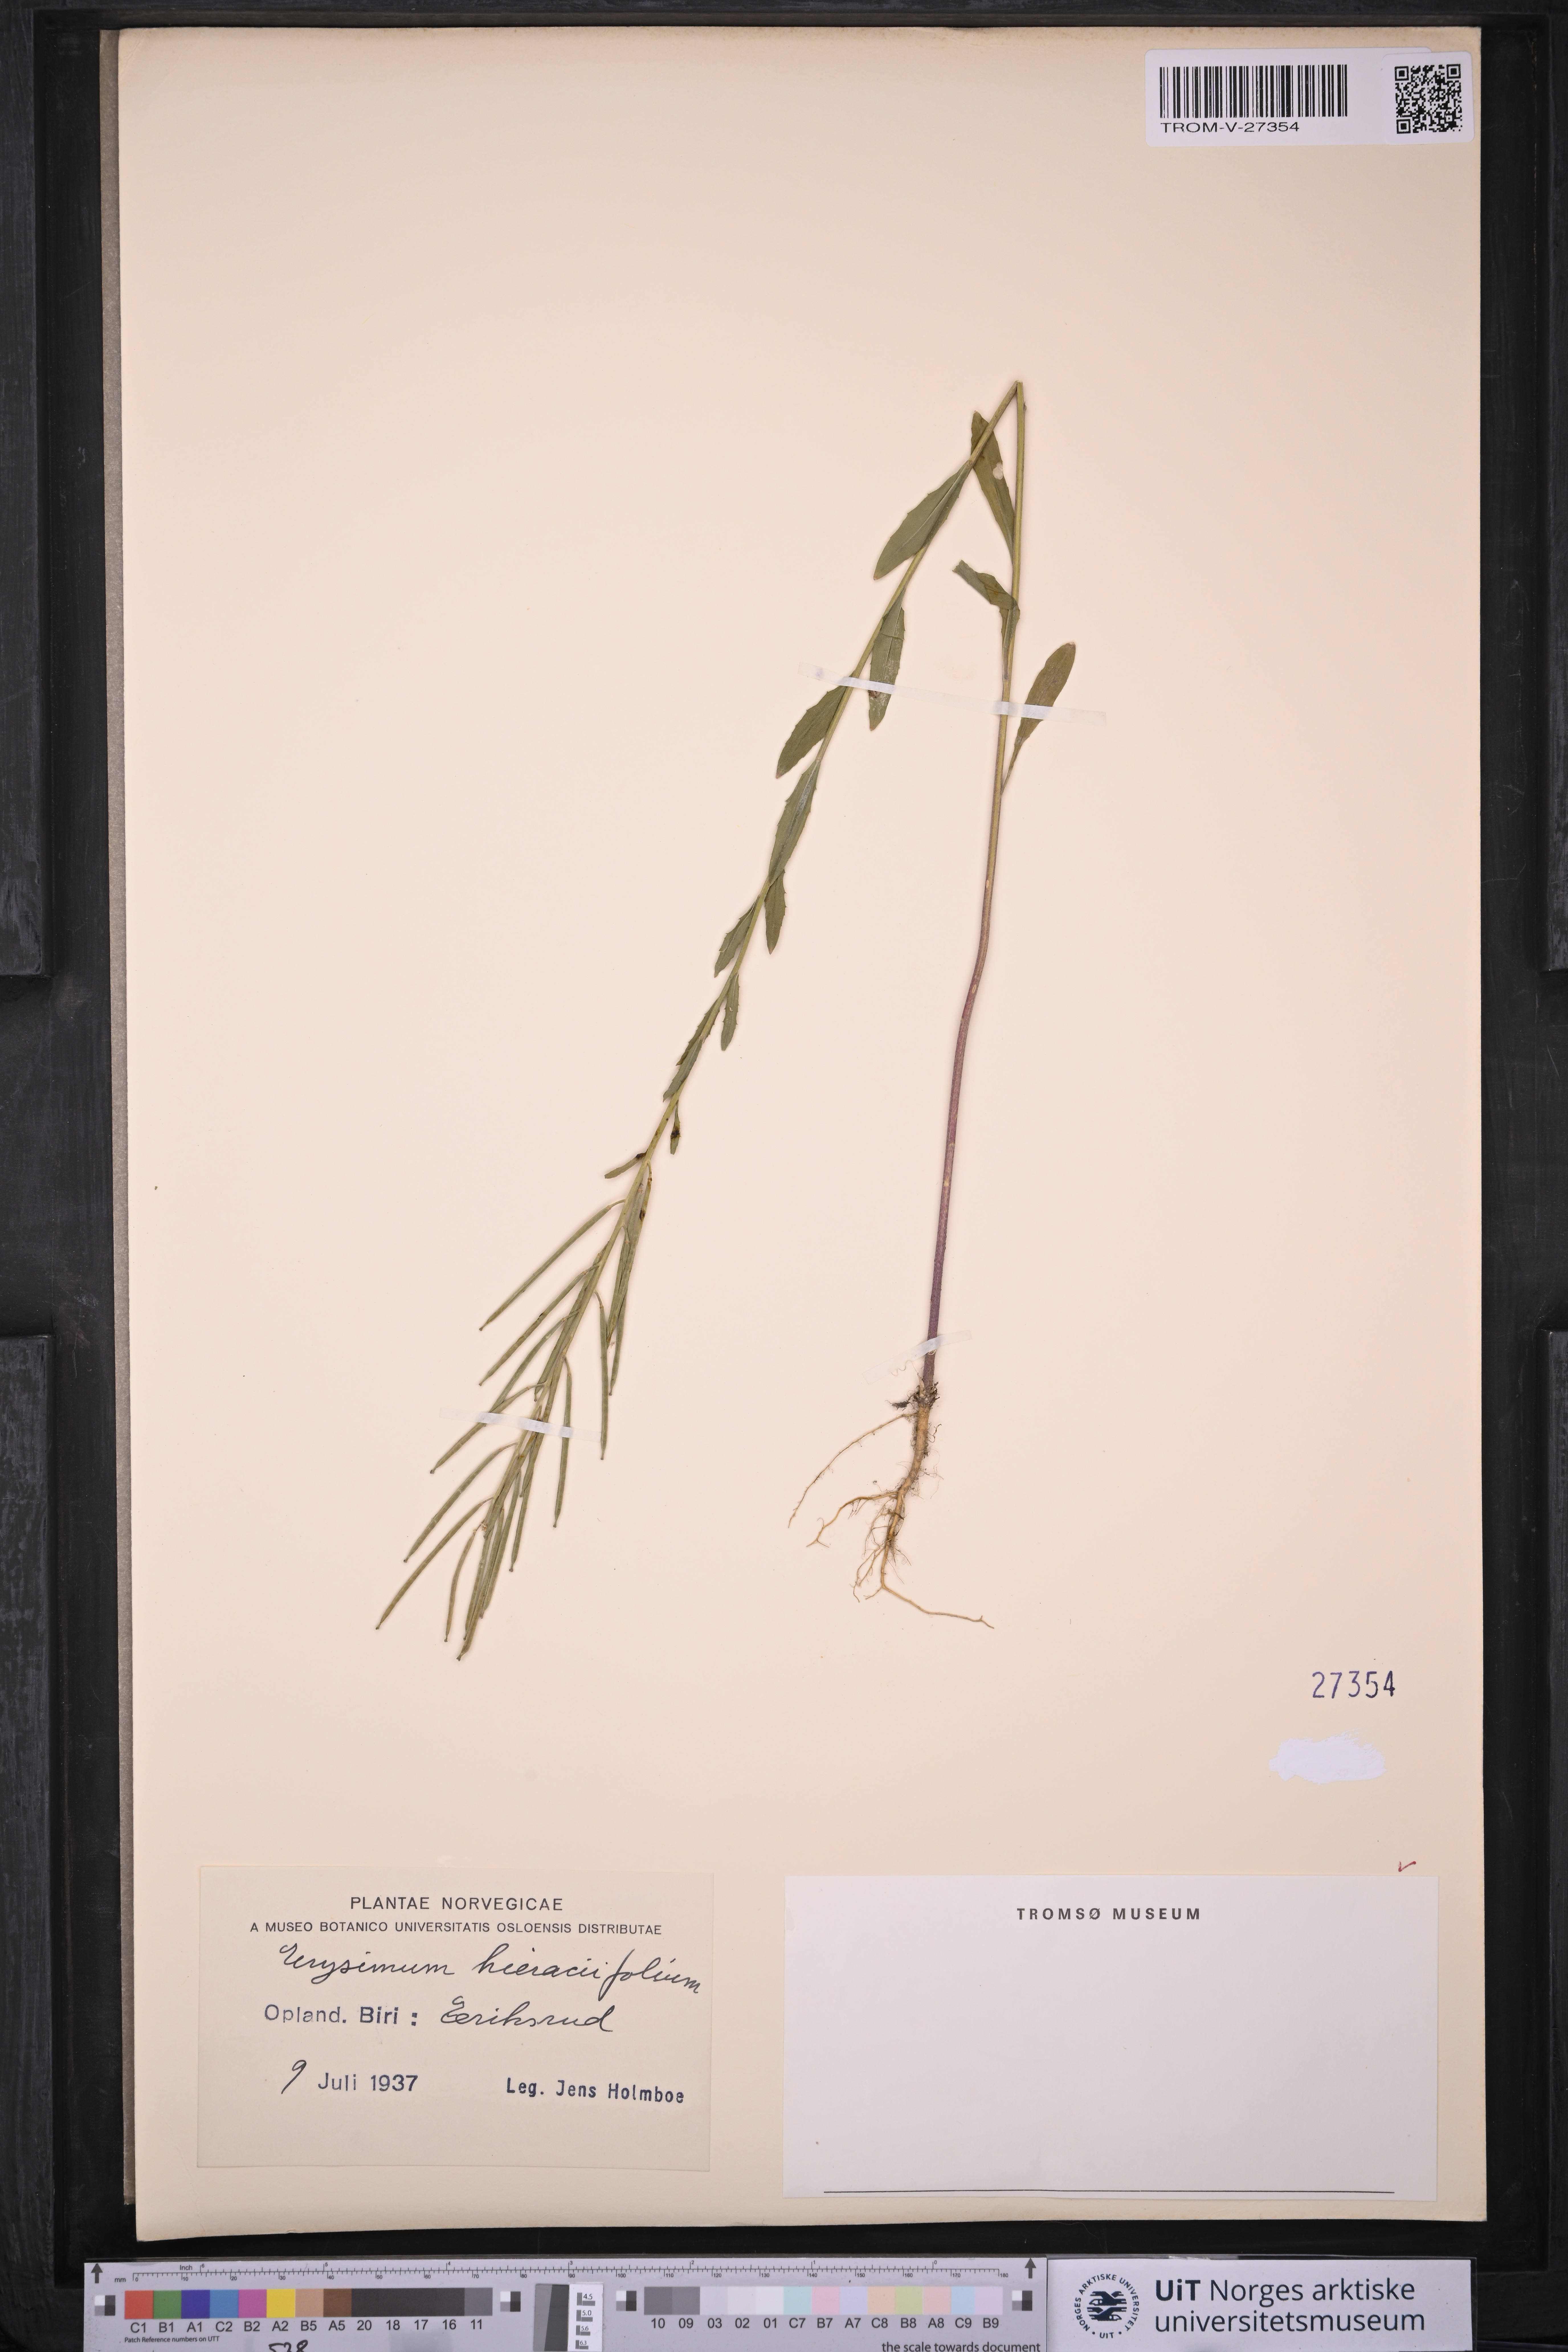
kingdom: Plantae
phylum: Tracheophyta
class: Magnoliopsida
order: Brassicales
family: Brassicaceae
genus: Erysimum
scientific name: Erysimum virgatum
